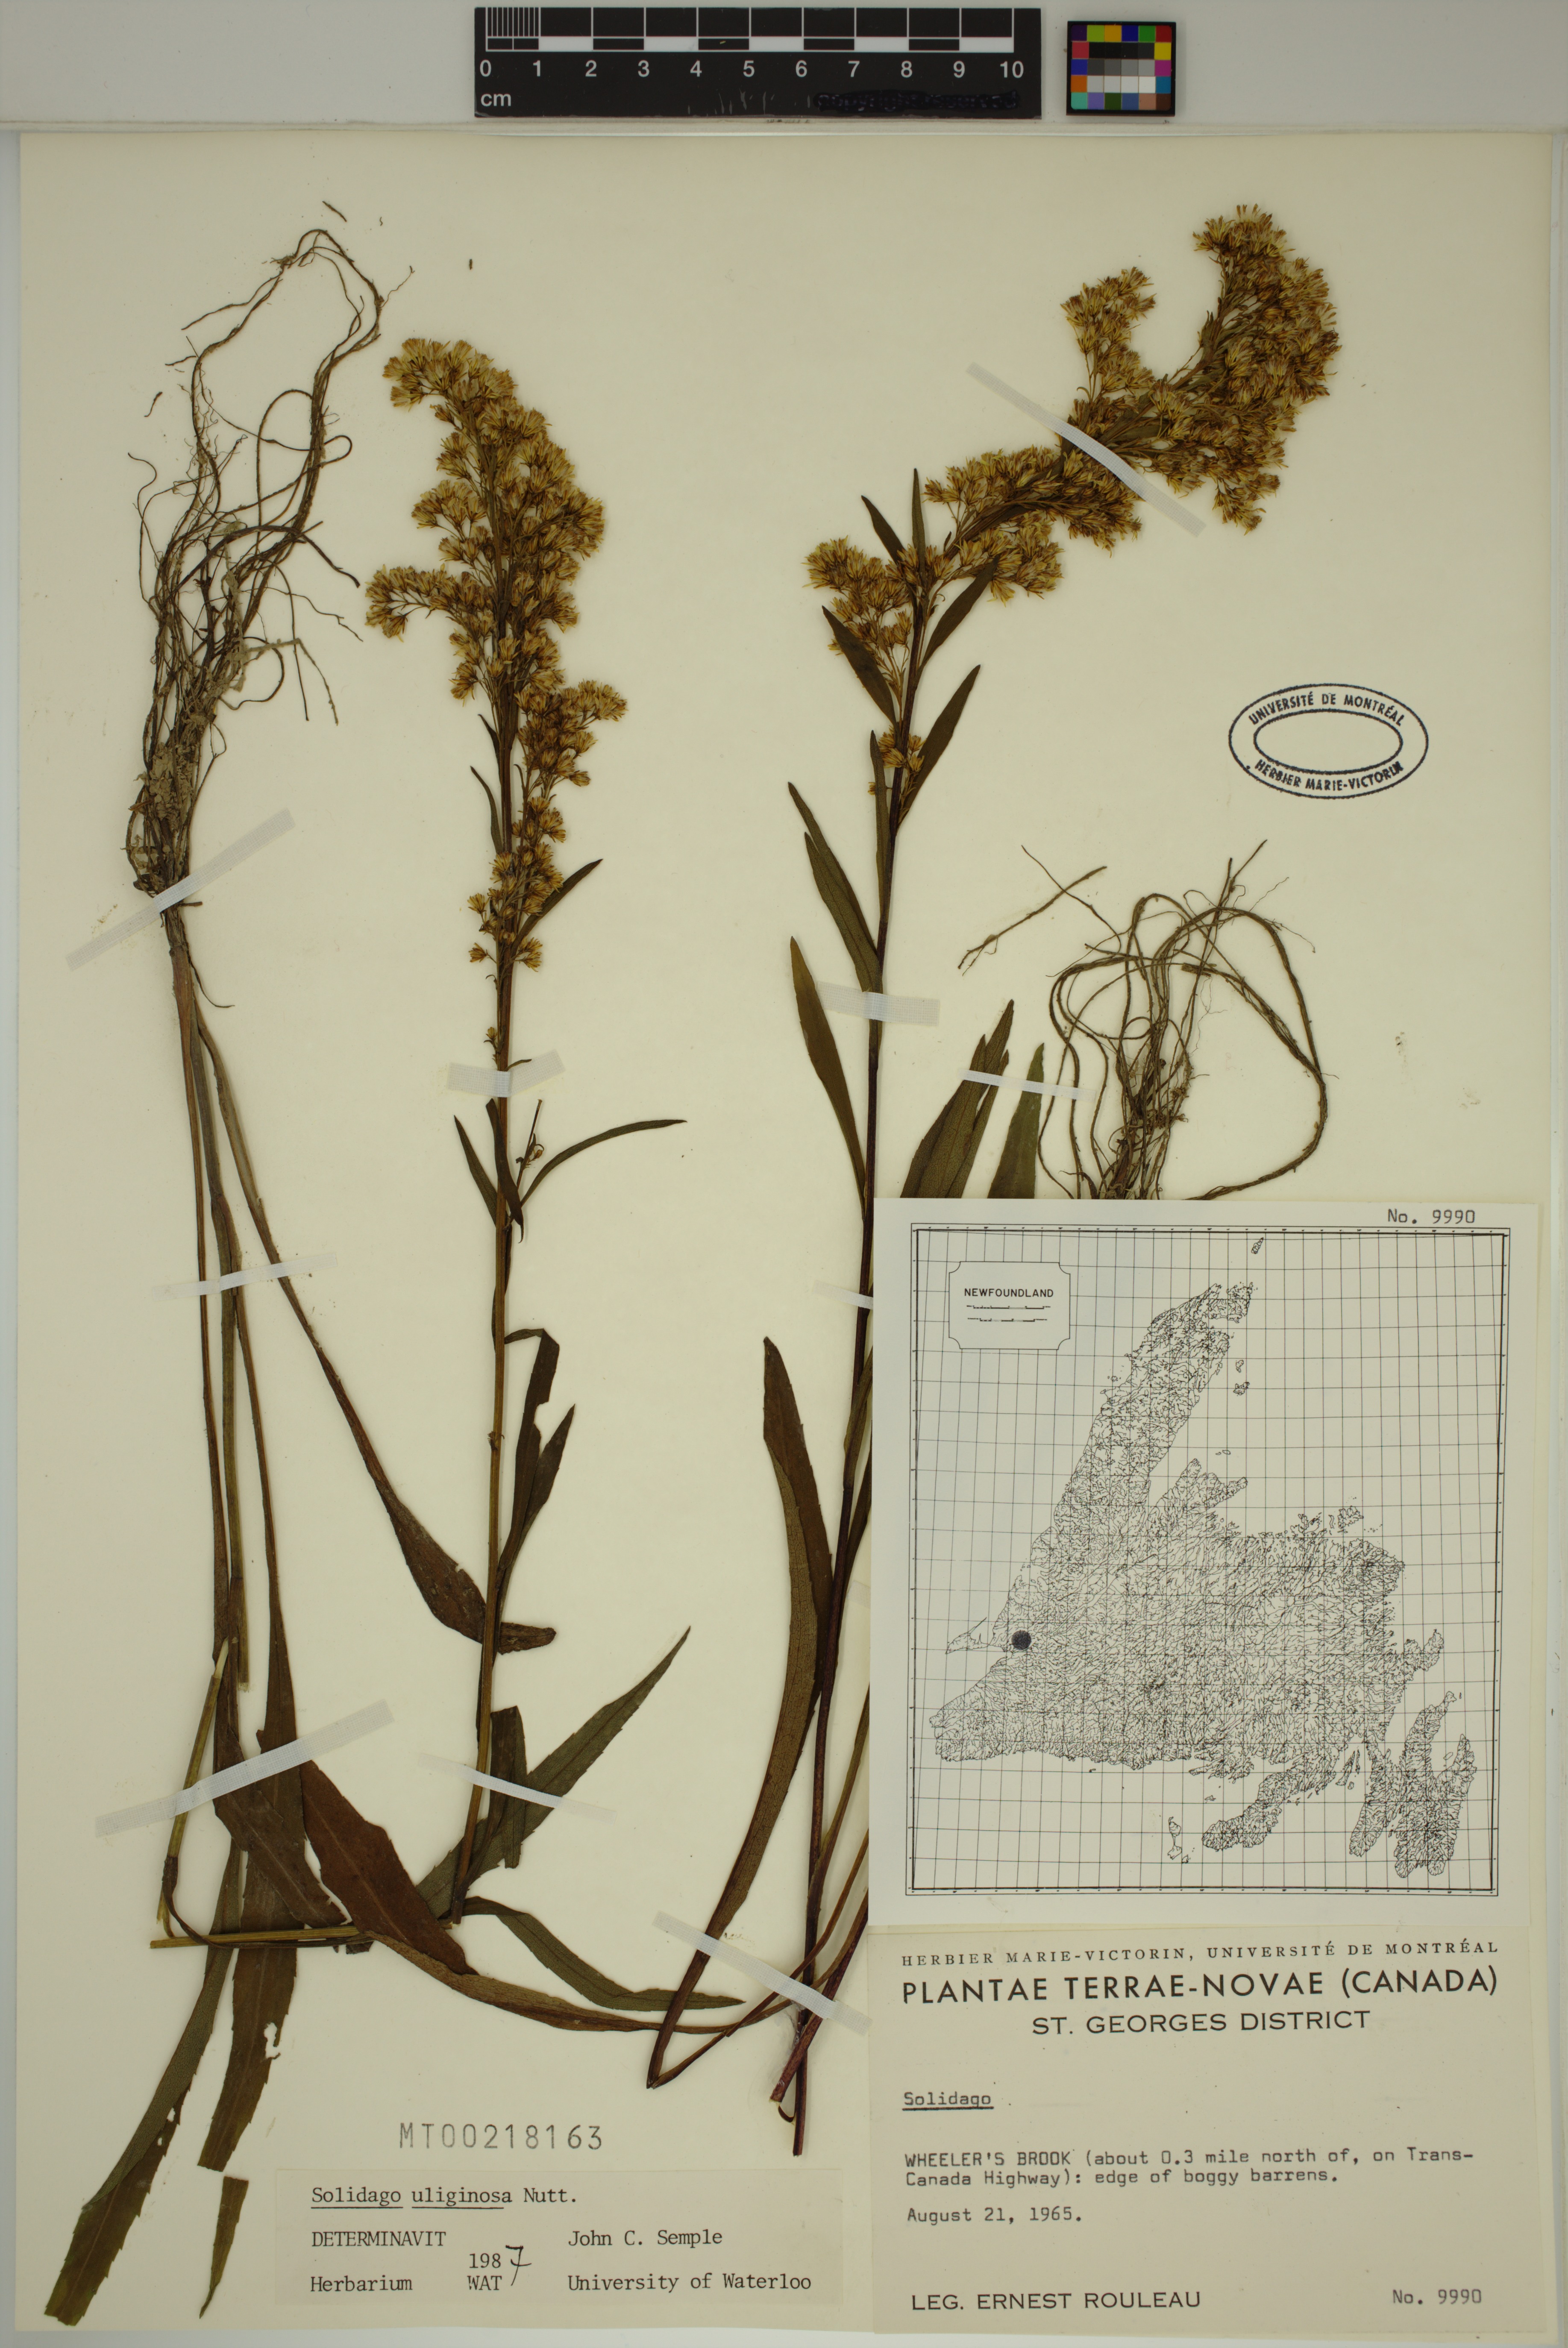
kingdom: Plantae
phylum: Tracheophyta
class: Magnoliopsida
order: Asterales
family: Asteraceae
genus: Solidago
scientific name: Solidago uliginosa
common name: Bog goldenrod
